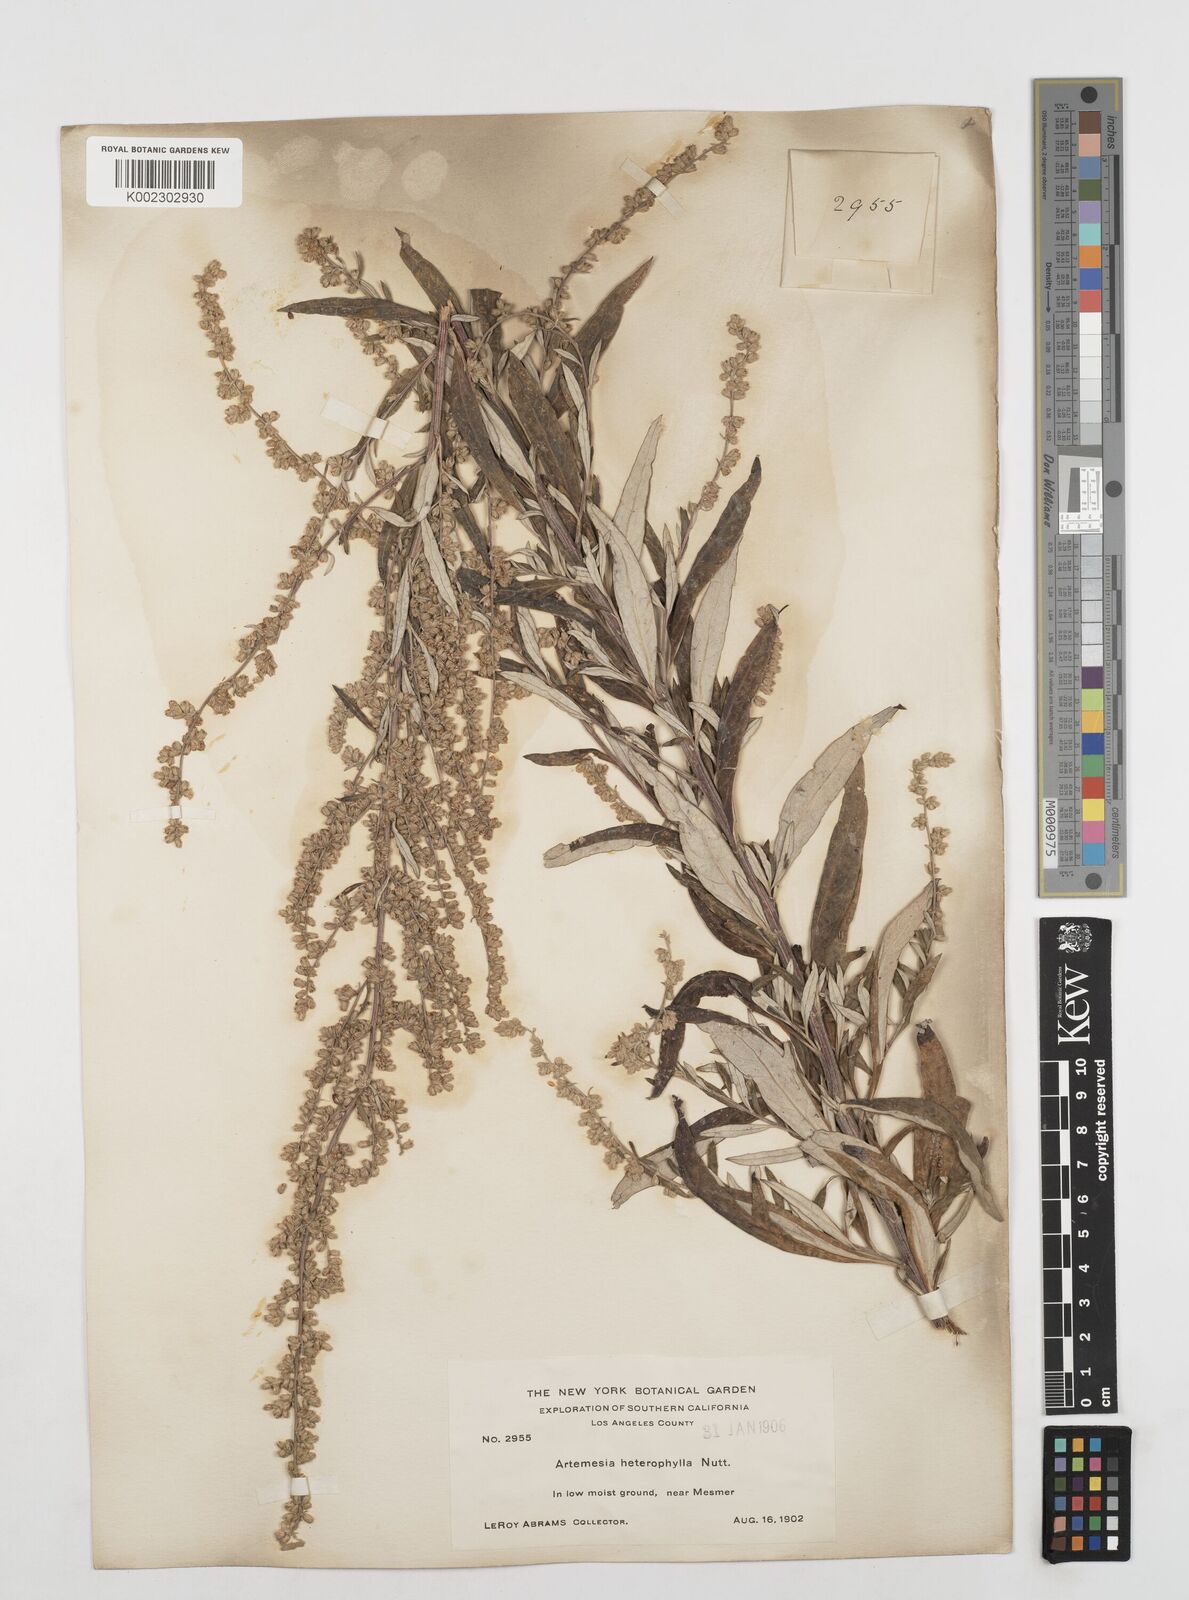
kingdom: Plantae
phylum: Tracheophyta
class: Magnoliopsida
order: Asterales
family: Asteraceae
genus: Artemisia
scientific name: Artemisia douglasiana
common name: Northwest mugwort
